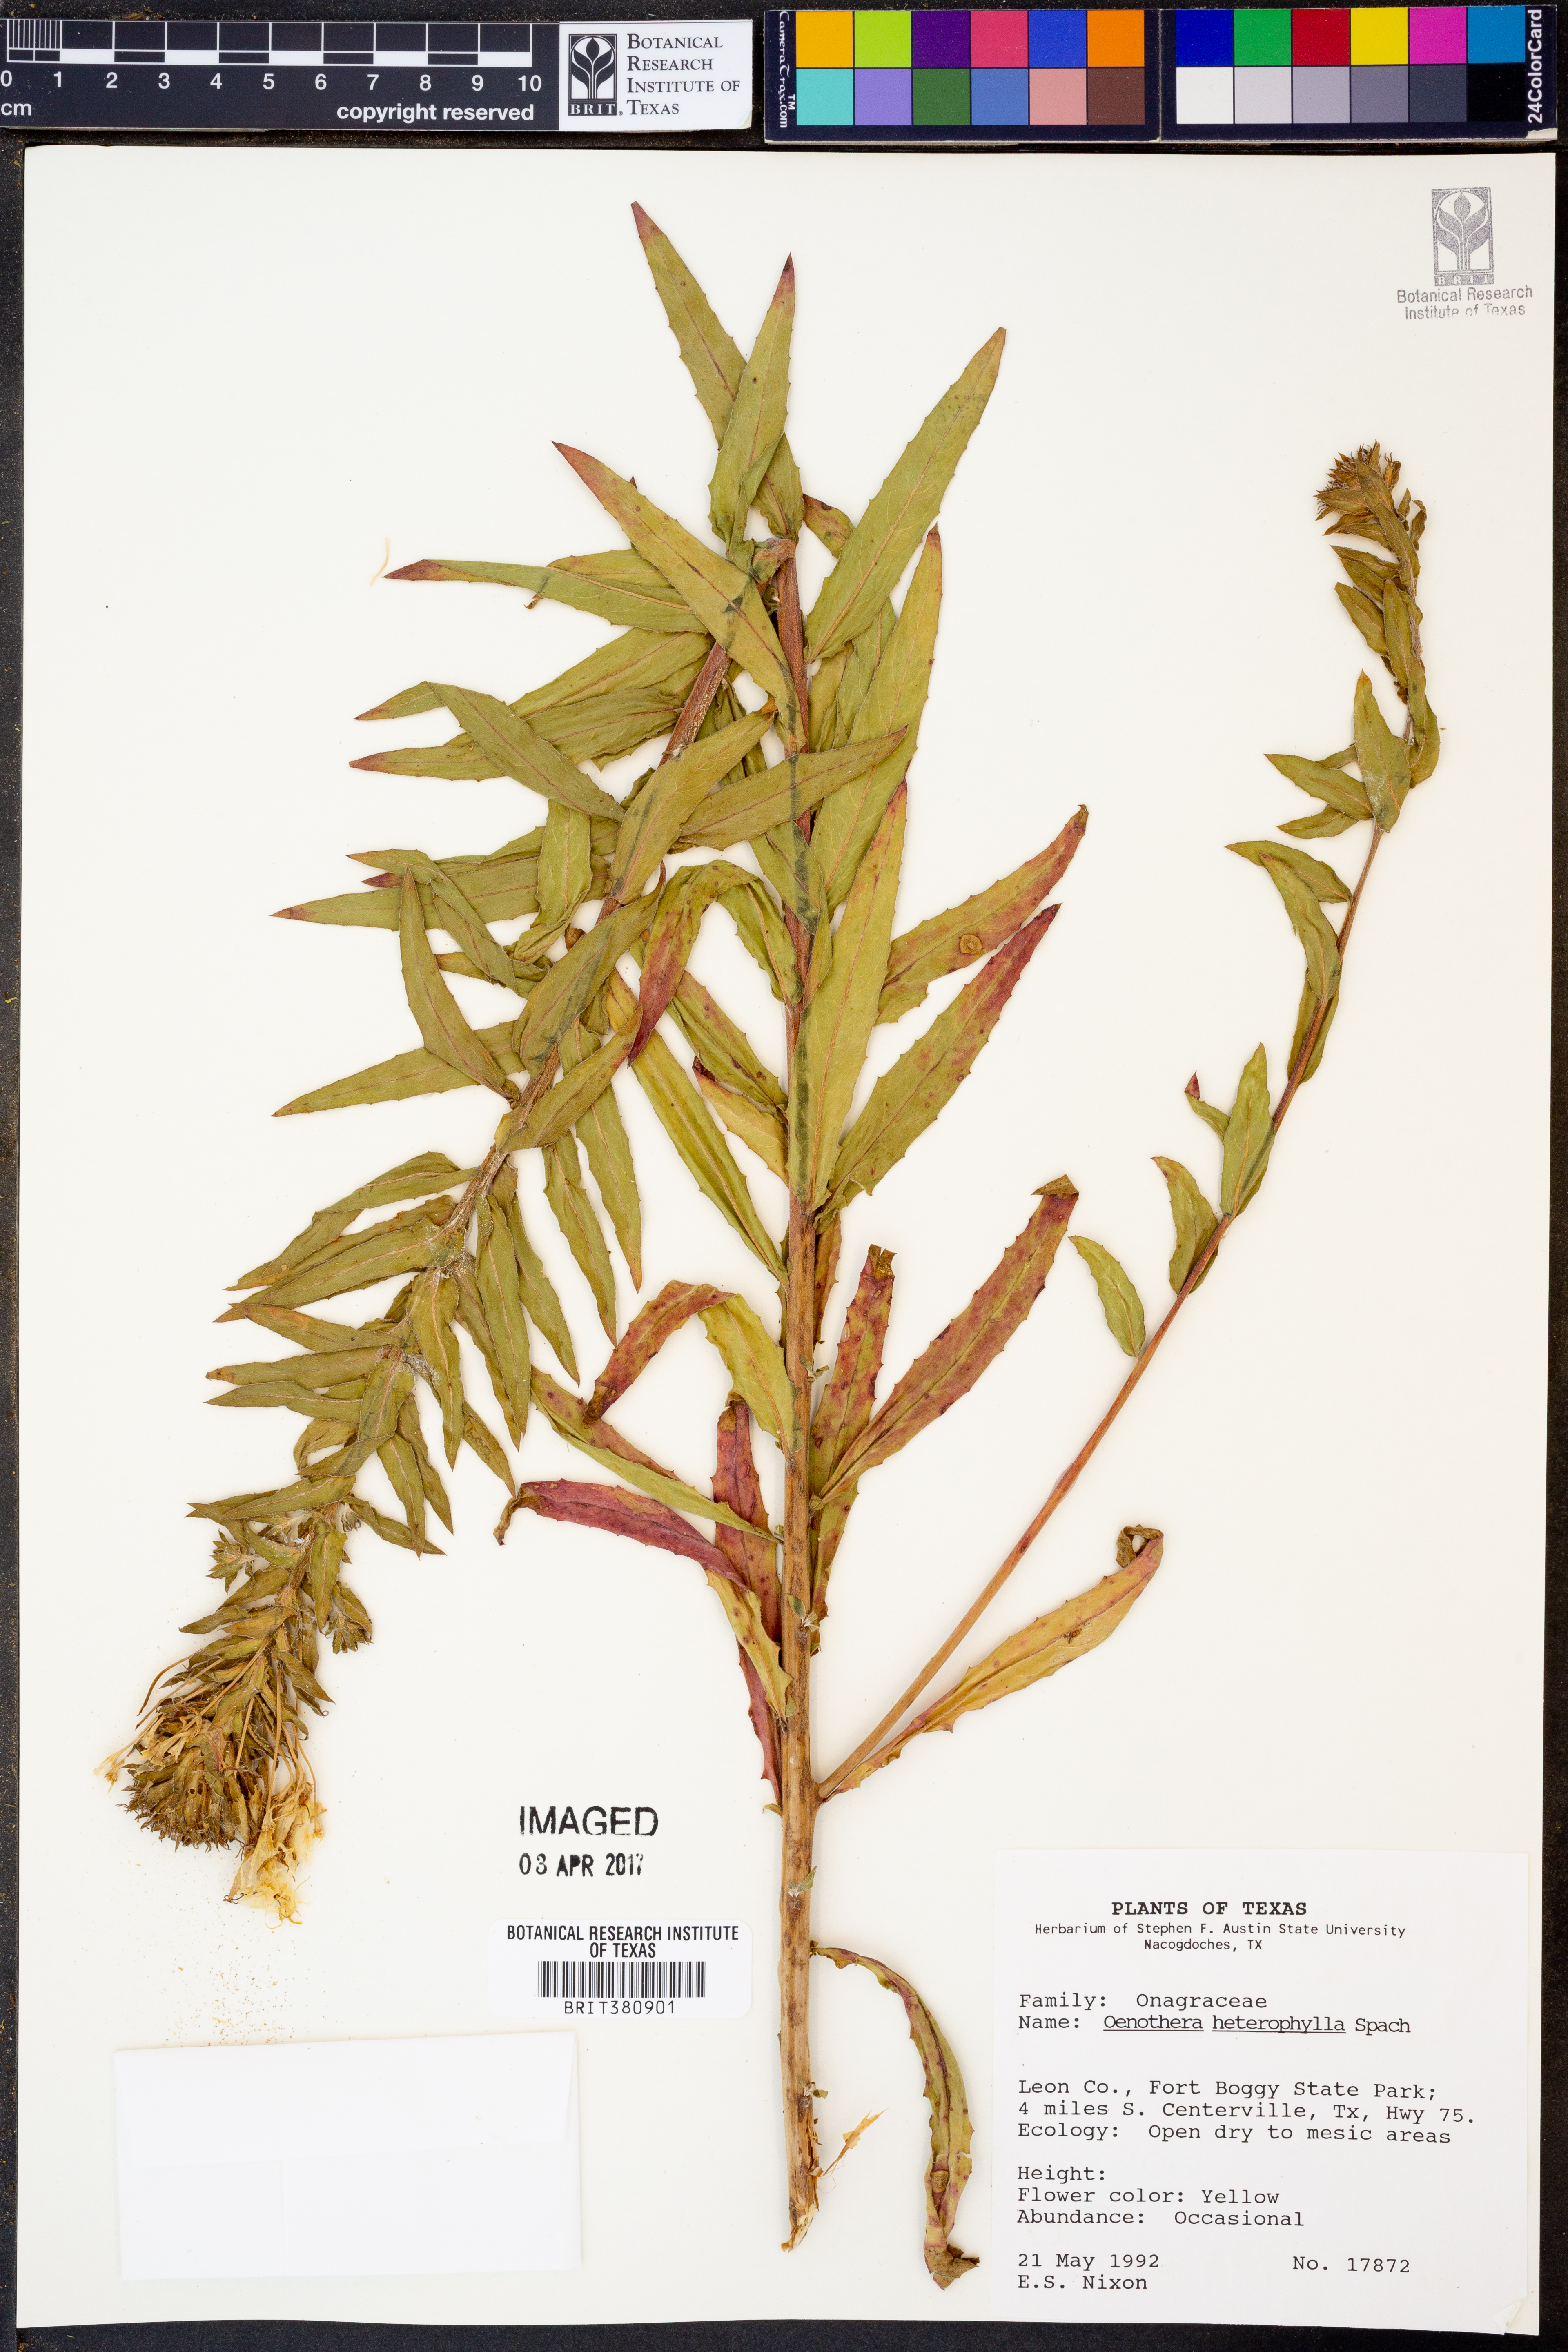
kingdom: Plantae
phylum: Tracheophyta
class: Magnoliopsida
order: Myrtales
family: Onagraceae
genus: Camissonia
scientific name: Camissonia dentata
